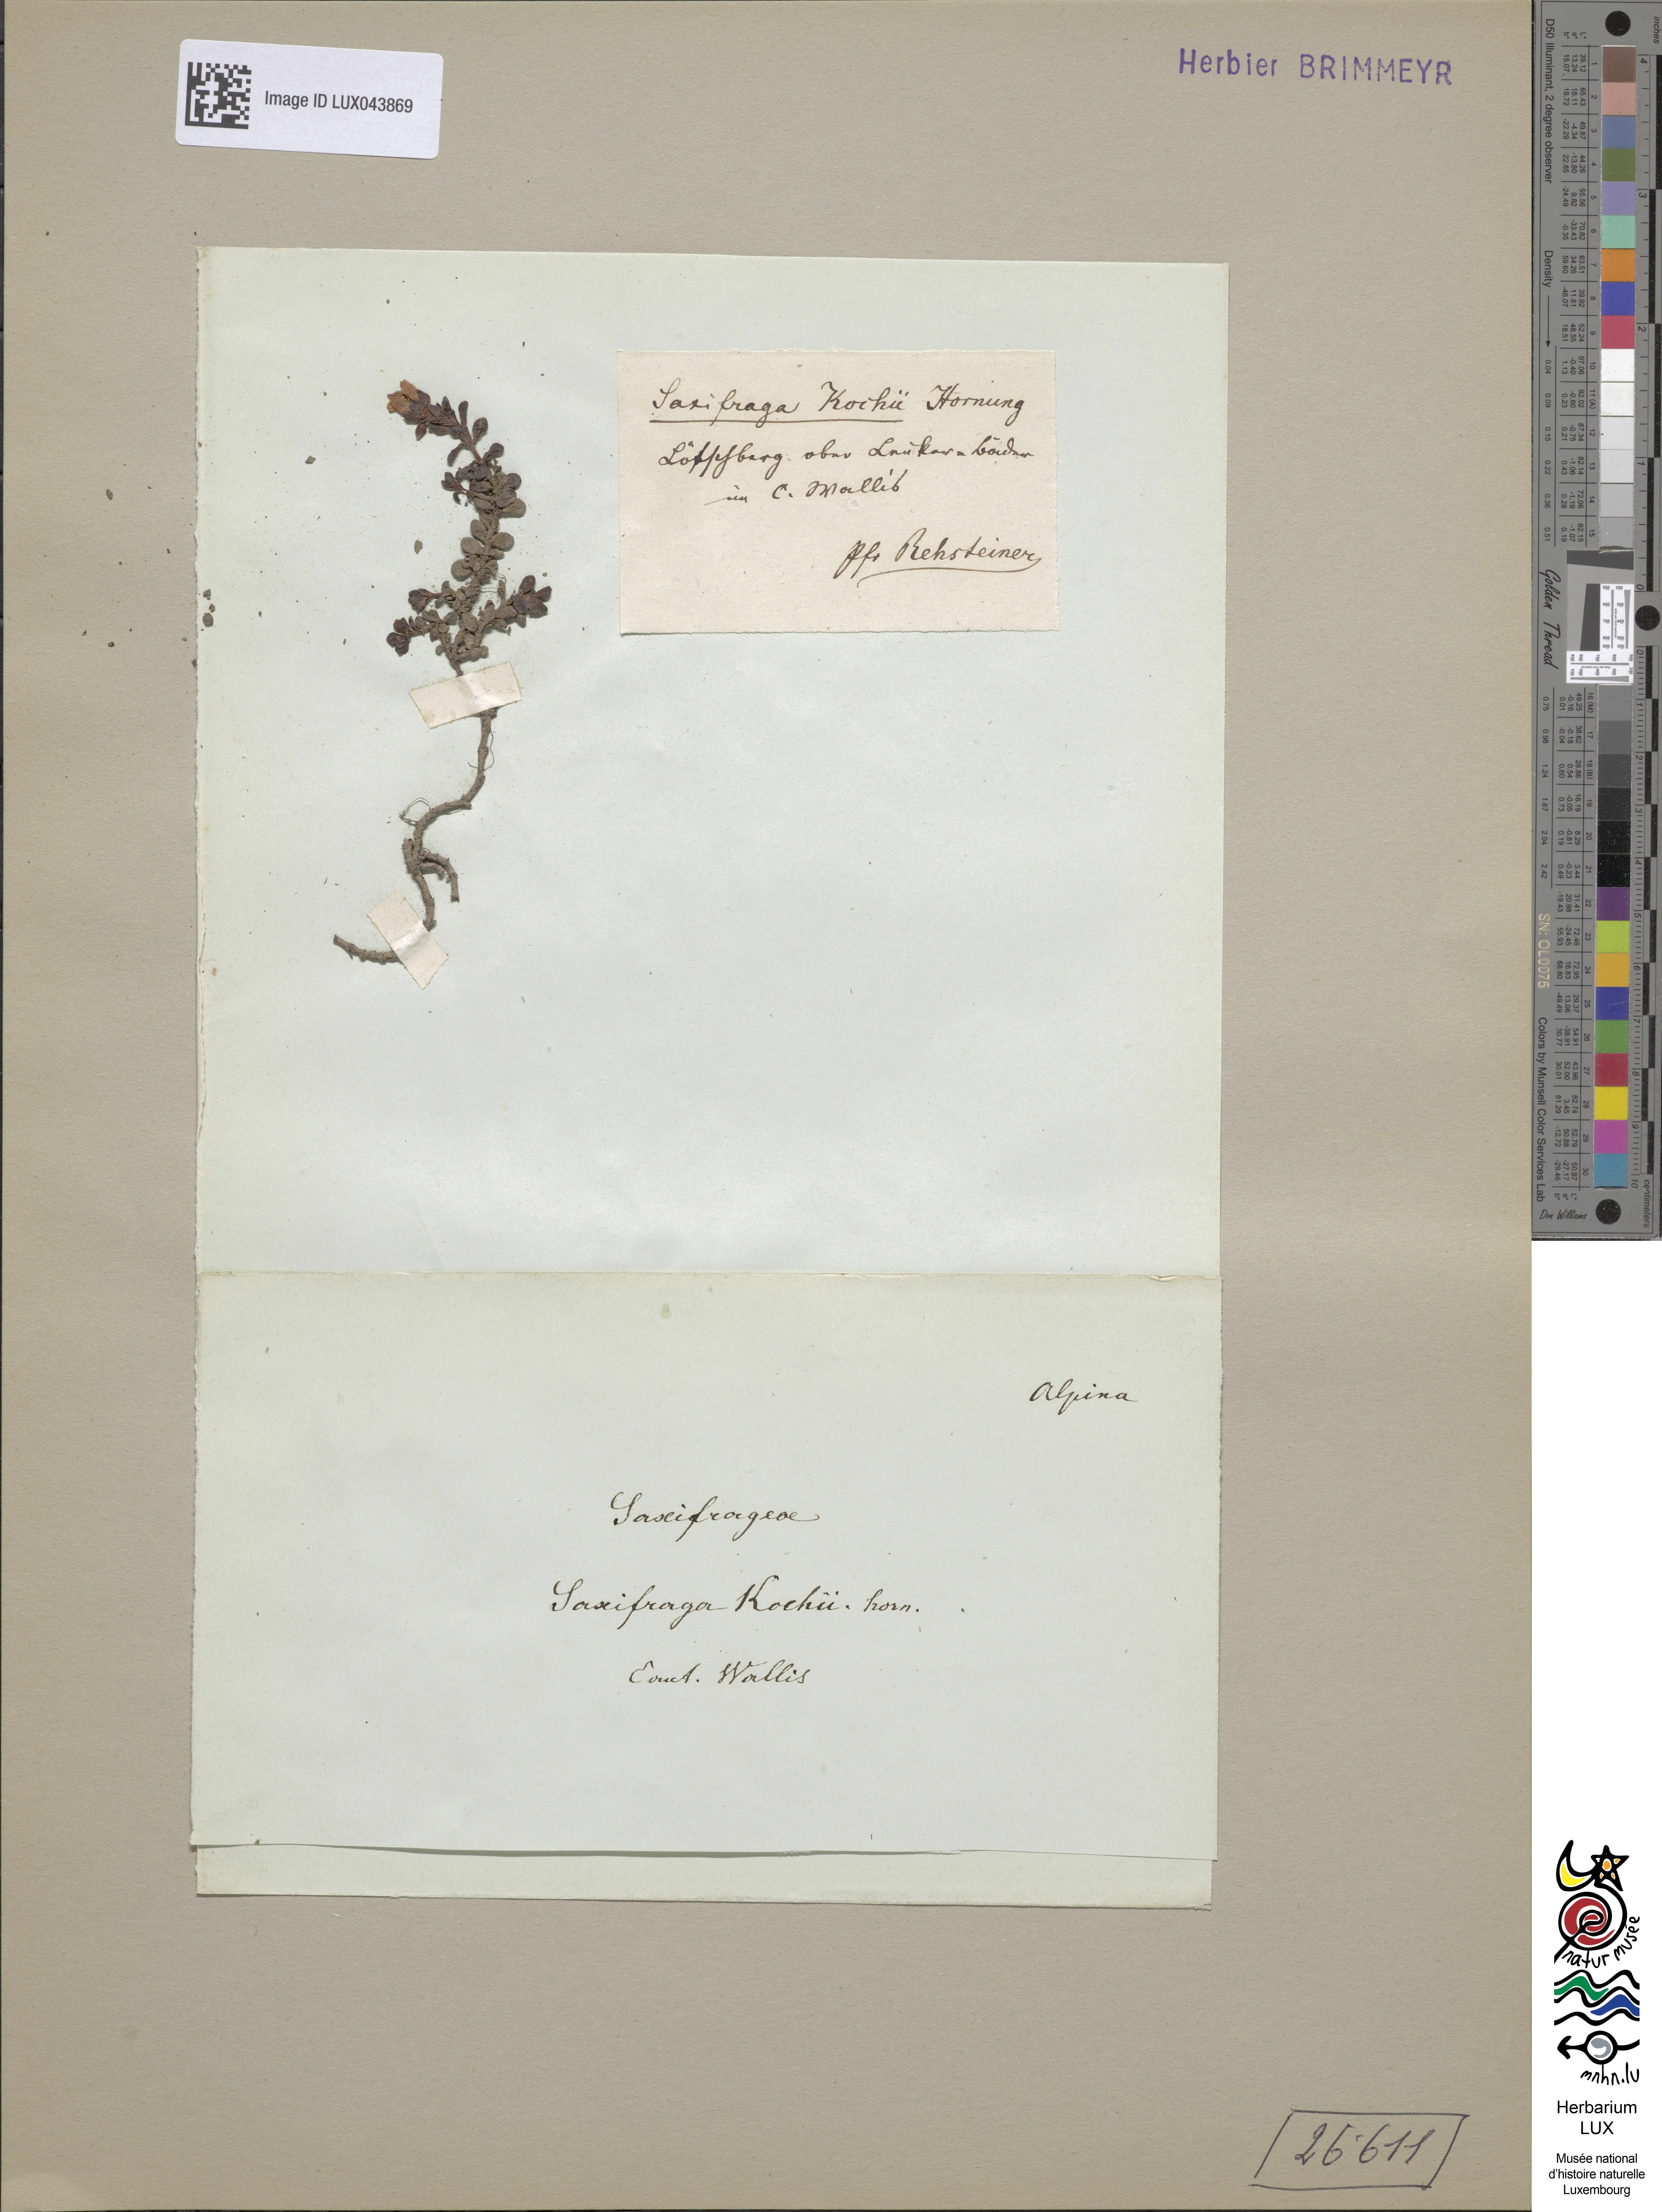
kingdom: Plantae
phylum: Tracheophyta
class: Magnoliopsida
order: Saxifragales
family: Saxifragaceae
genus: Saxifraga
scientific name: Saxifraga kochii
